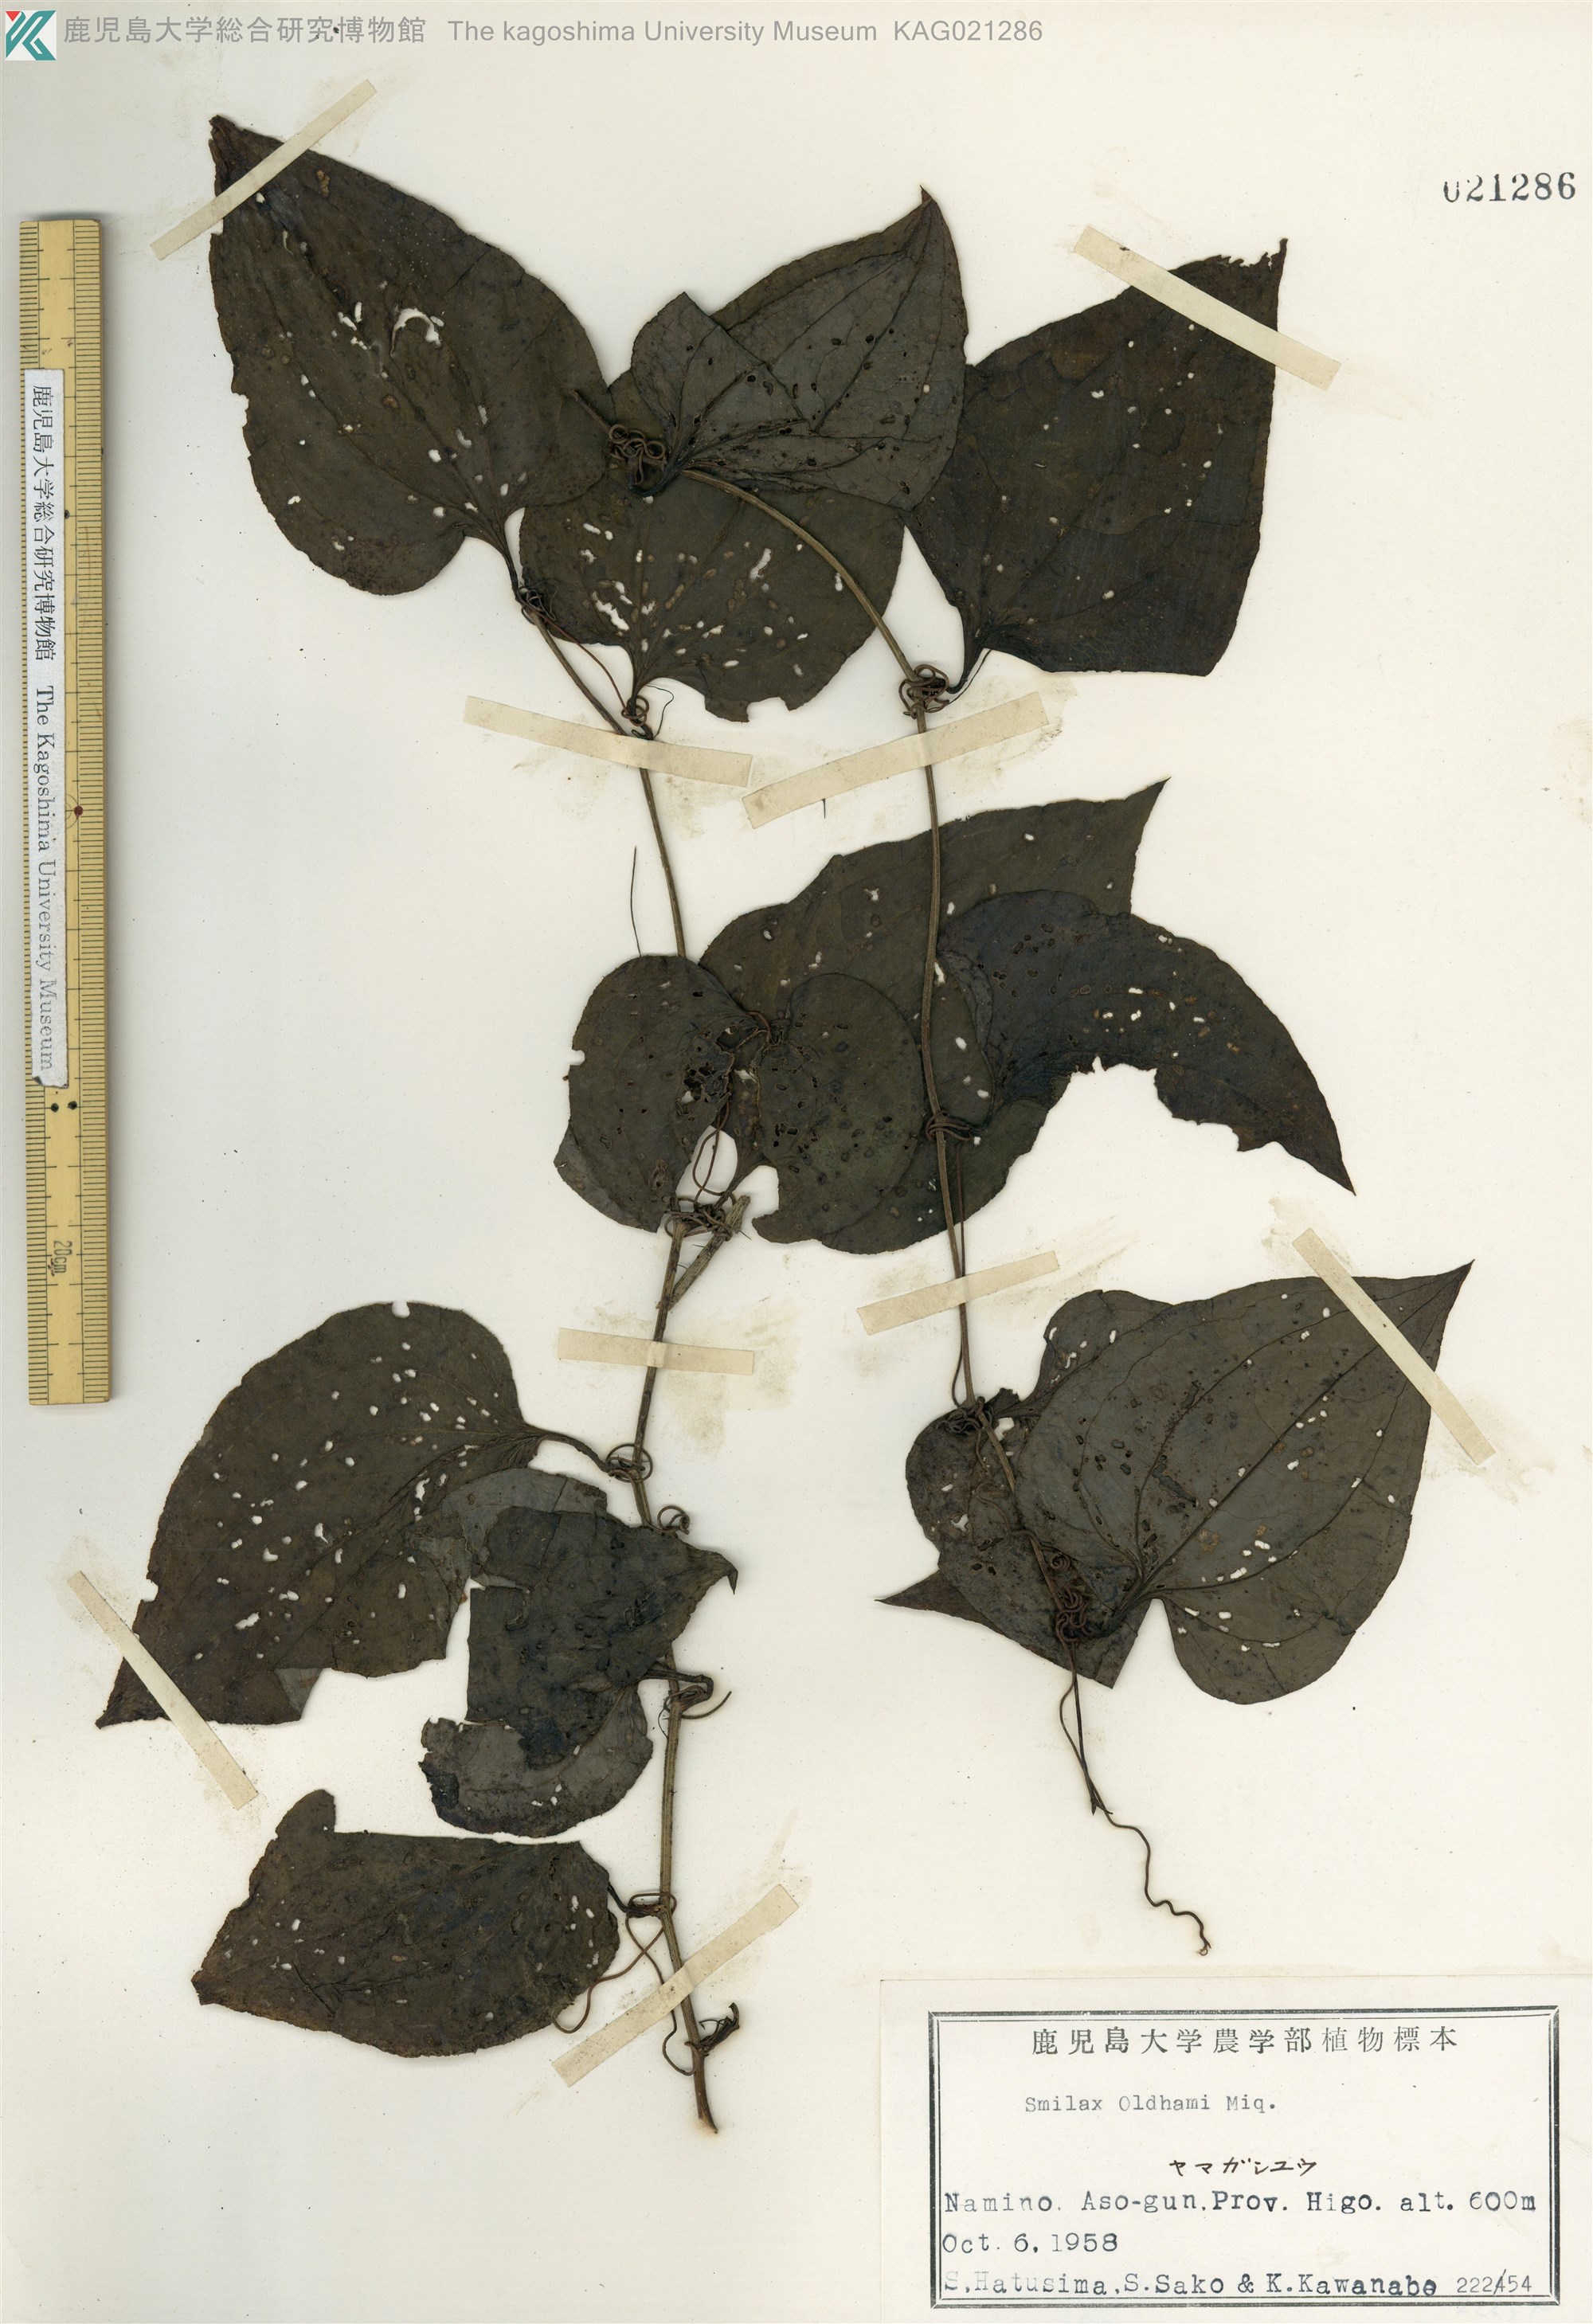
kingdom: Plantae
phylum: Tracheophyta
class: Liliopsida
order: Liliales
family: Smilacaceae
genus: Smilax
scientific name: Smilax sieboldii
